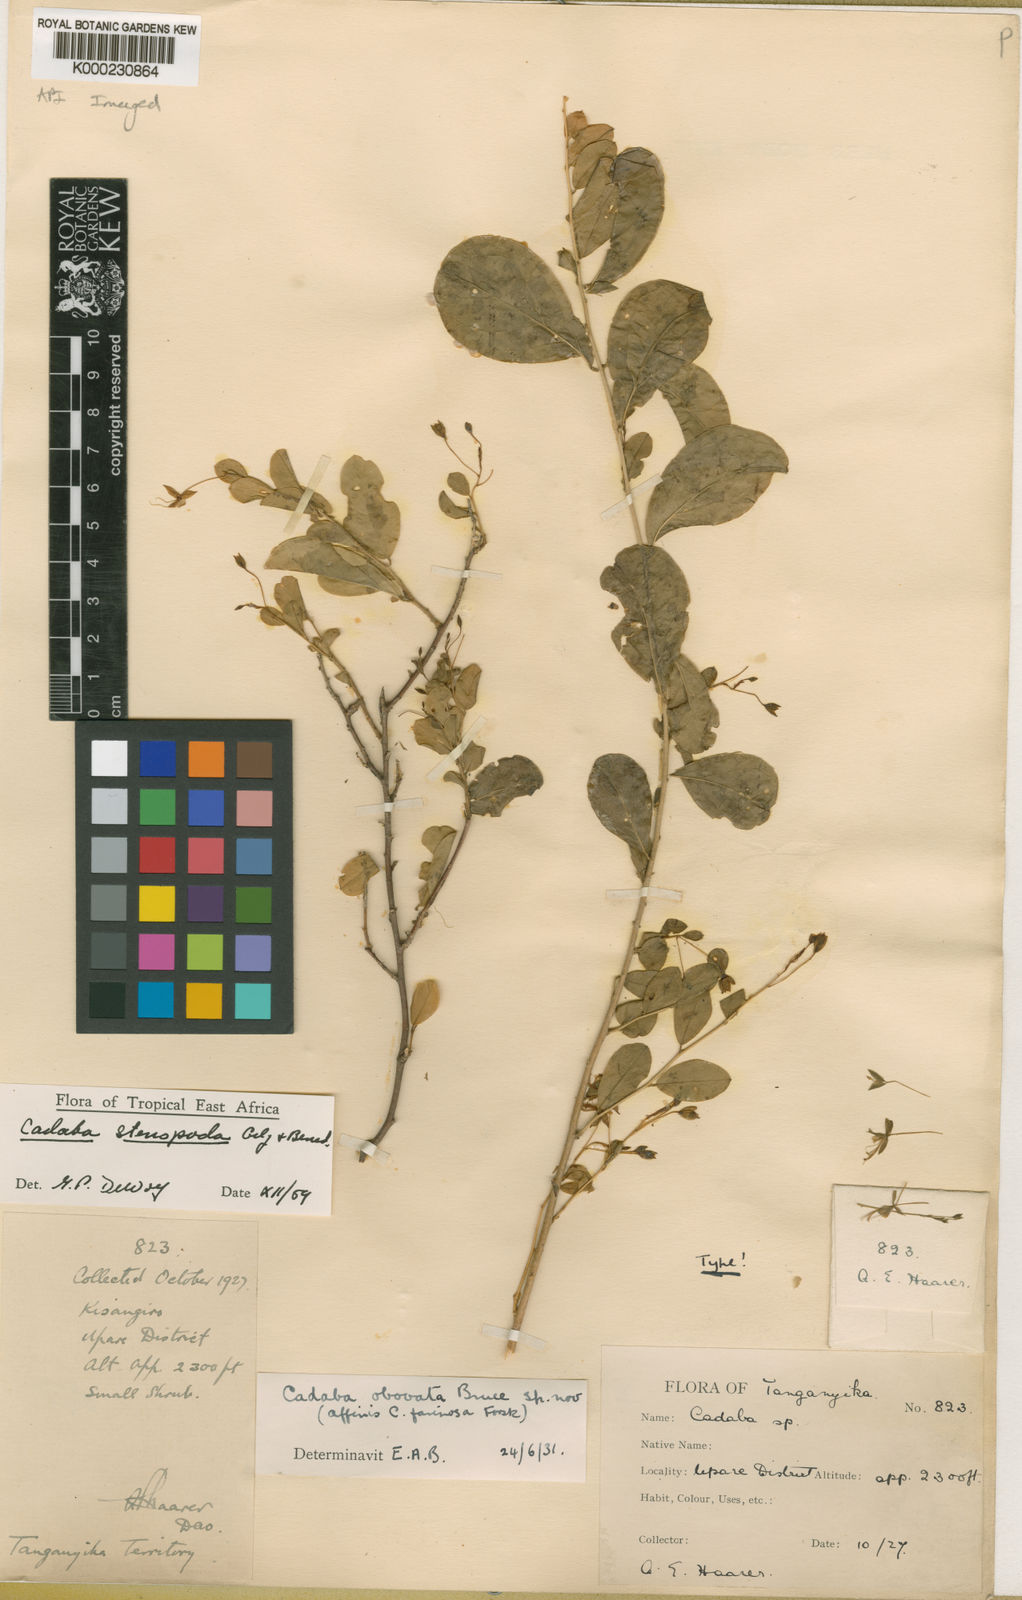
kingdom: Plantae
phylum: Tracheophyta
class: Magnoliopsida
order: Brassicales
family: Capparaceae
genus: Cadaba
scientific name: Cadaba stenopoda
